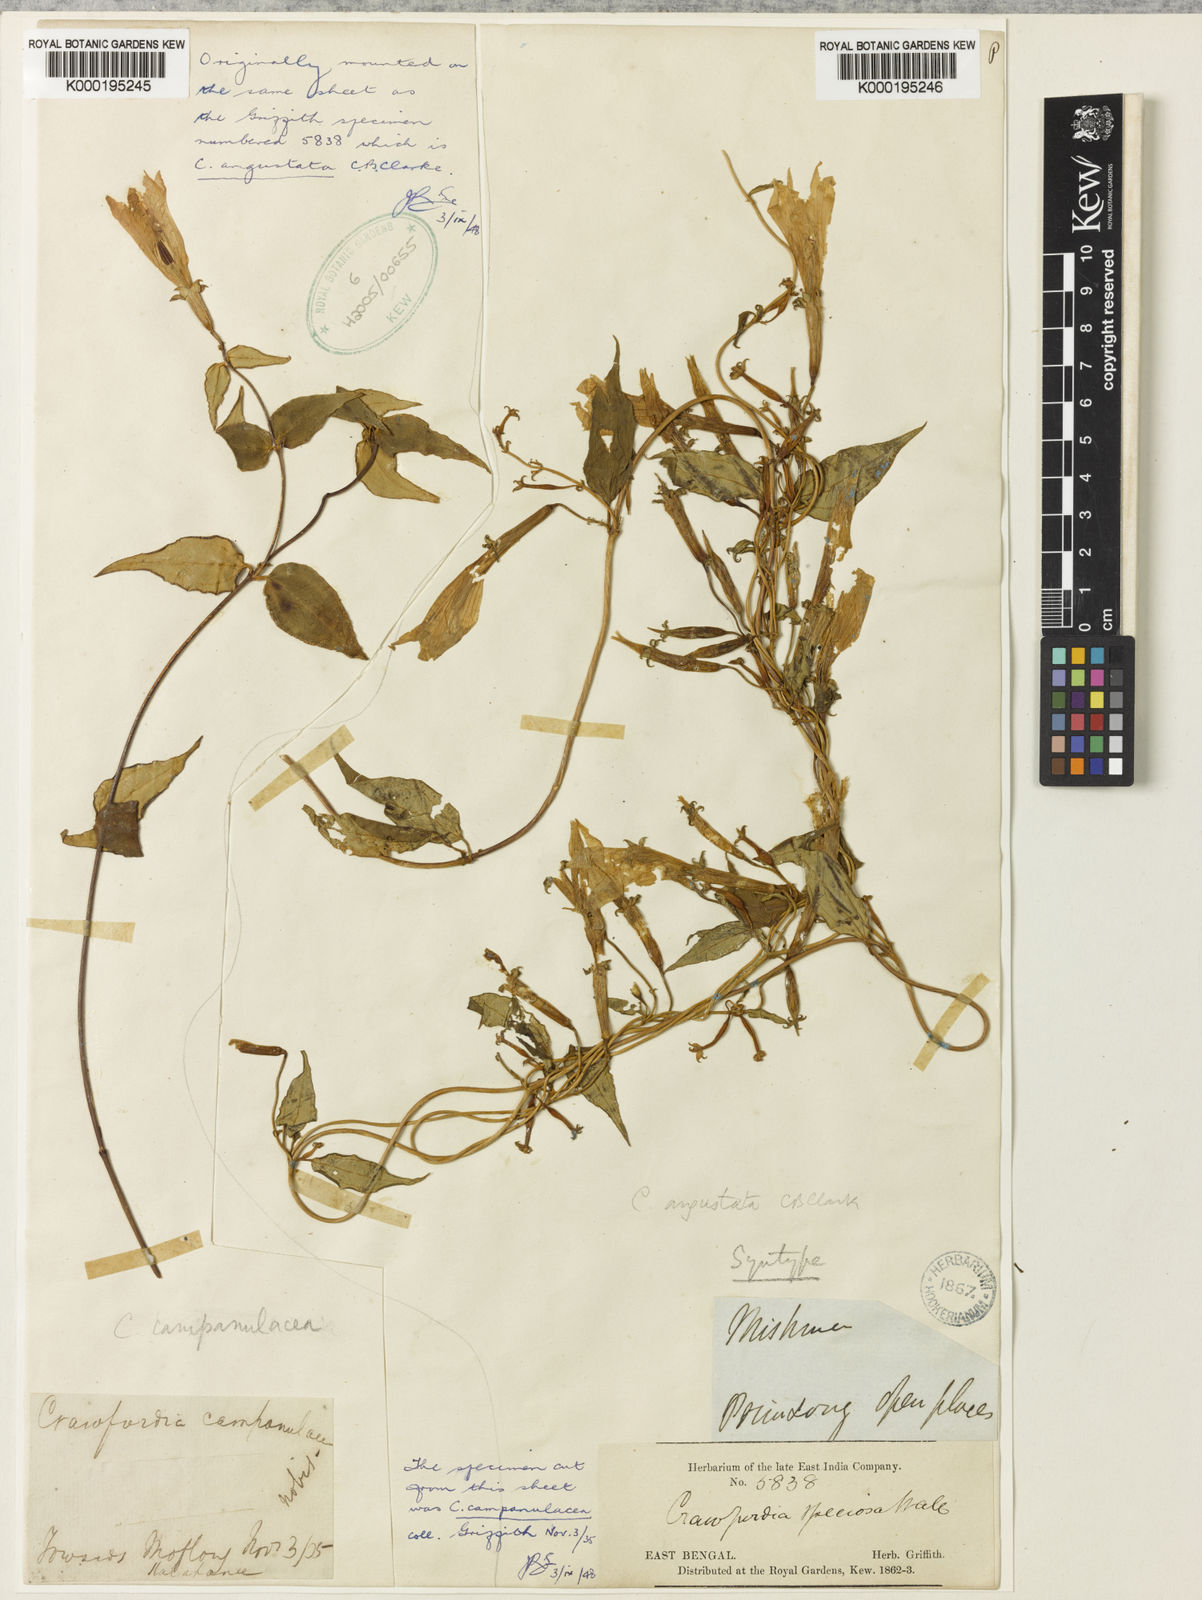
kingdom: Plantae
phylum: Tracheophyta
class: Magnoliopsida
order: Gentianales
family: Gentianaceae
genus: Crawfurdia
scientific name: Crawfurdia angustata
